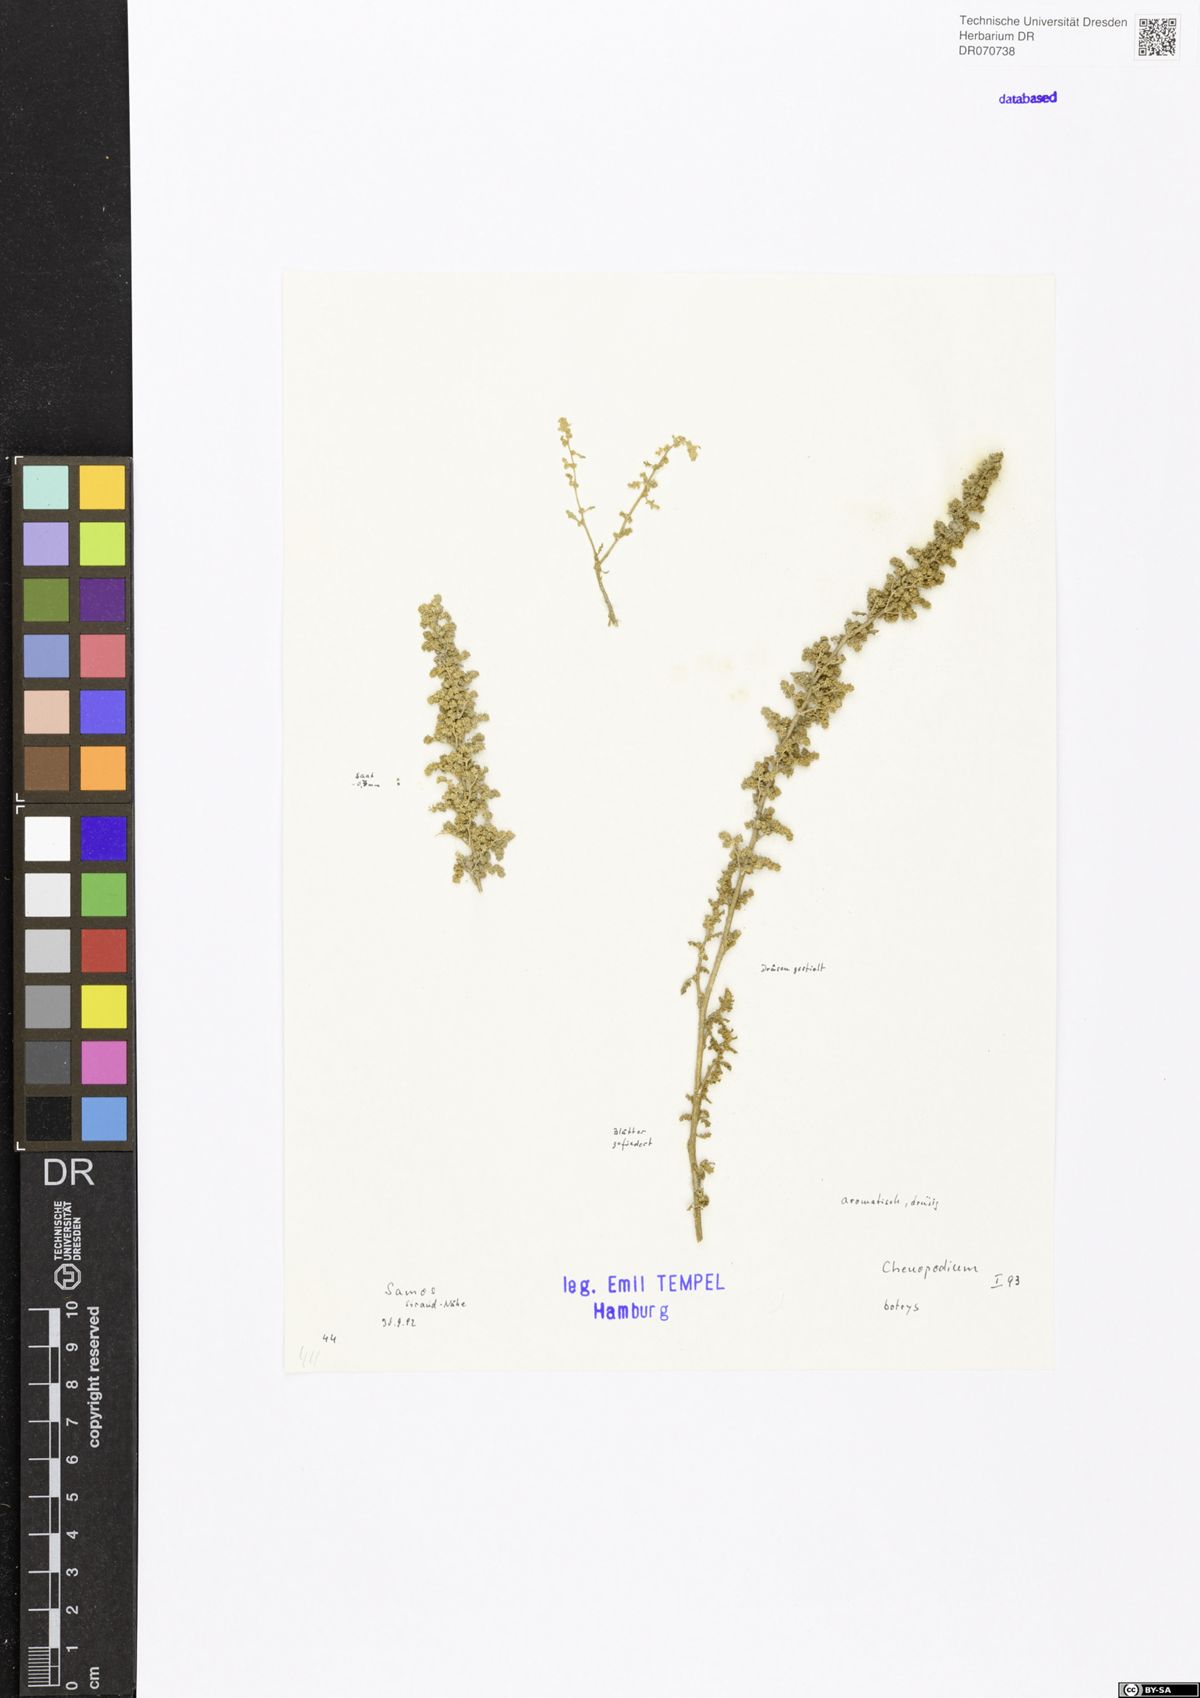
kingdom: Plantae
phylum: Tracheophyta
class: Magnoliopsida
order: Caryophyllales
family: Amaranthaceae
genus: Dysphania
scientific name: Dysphania botrys
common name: Feather-geranium
